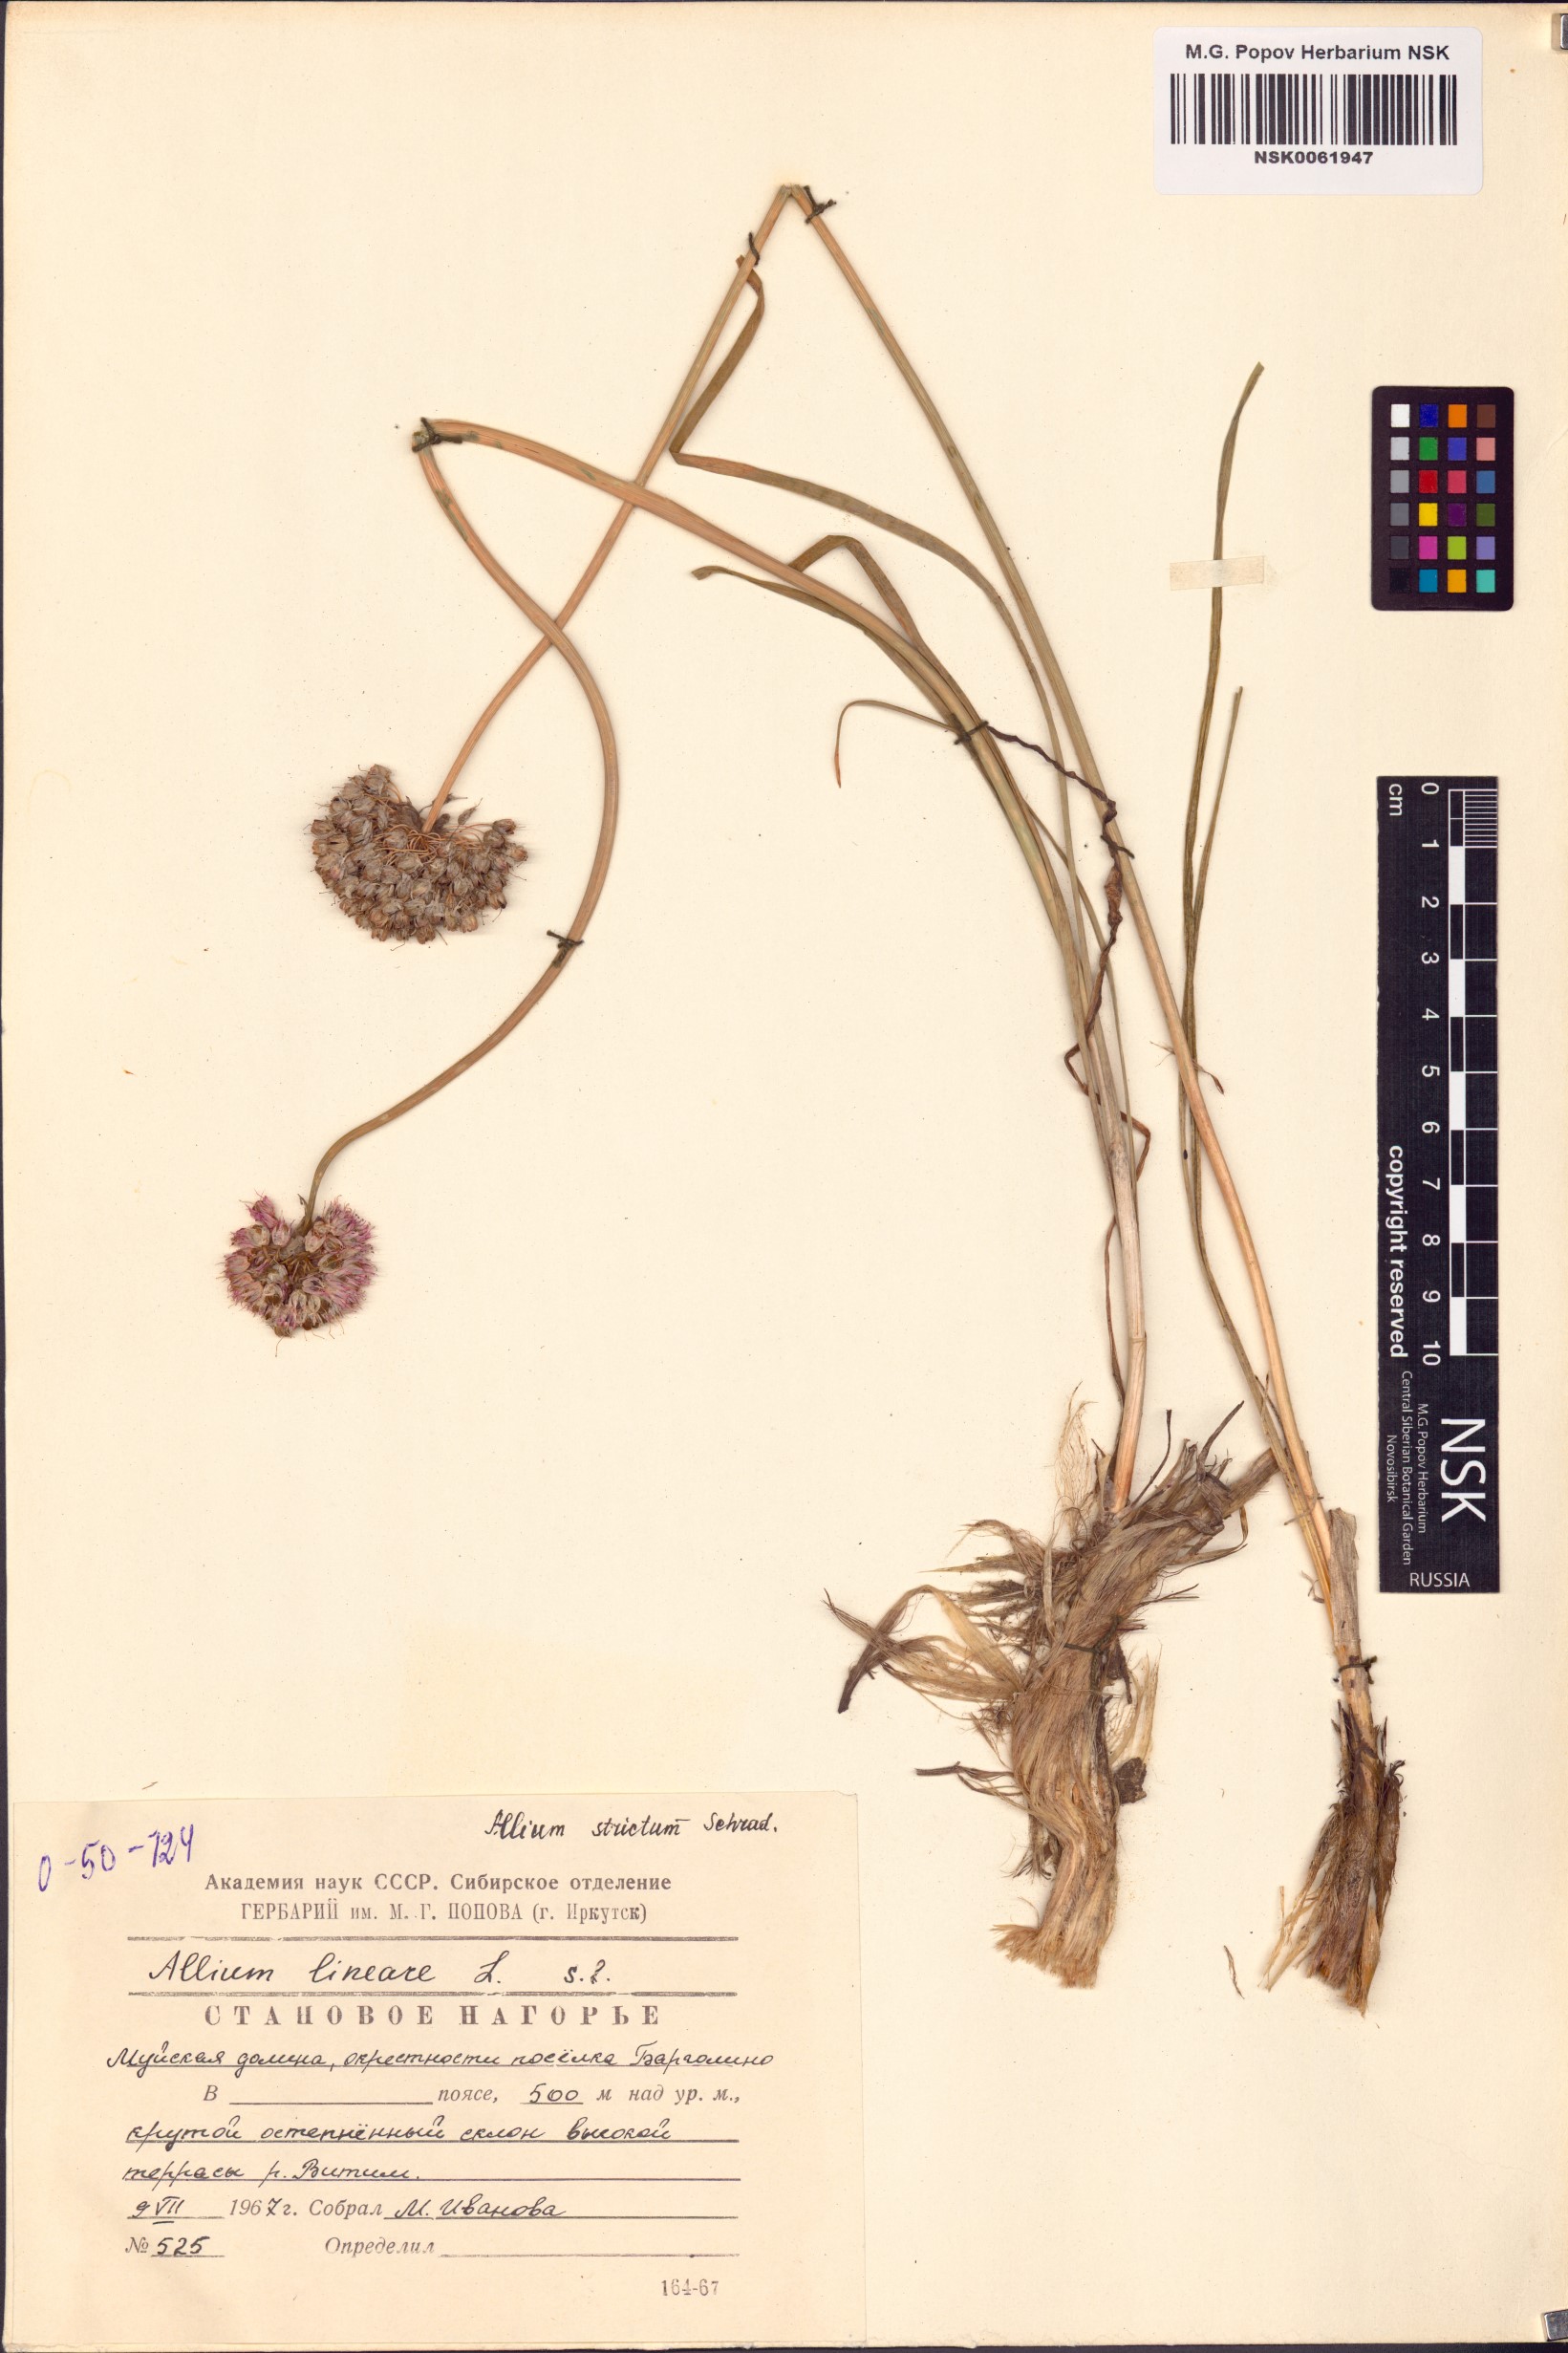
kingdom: Plantae
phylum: Tracheophyta
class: Liliopsida
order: Asparagales
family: Amaryllidaceae
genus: Allium
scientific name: Allium strictum
